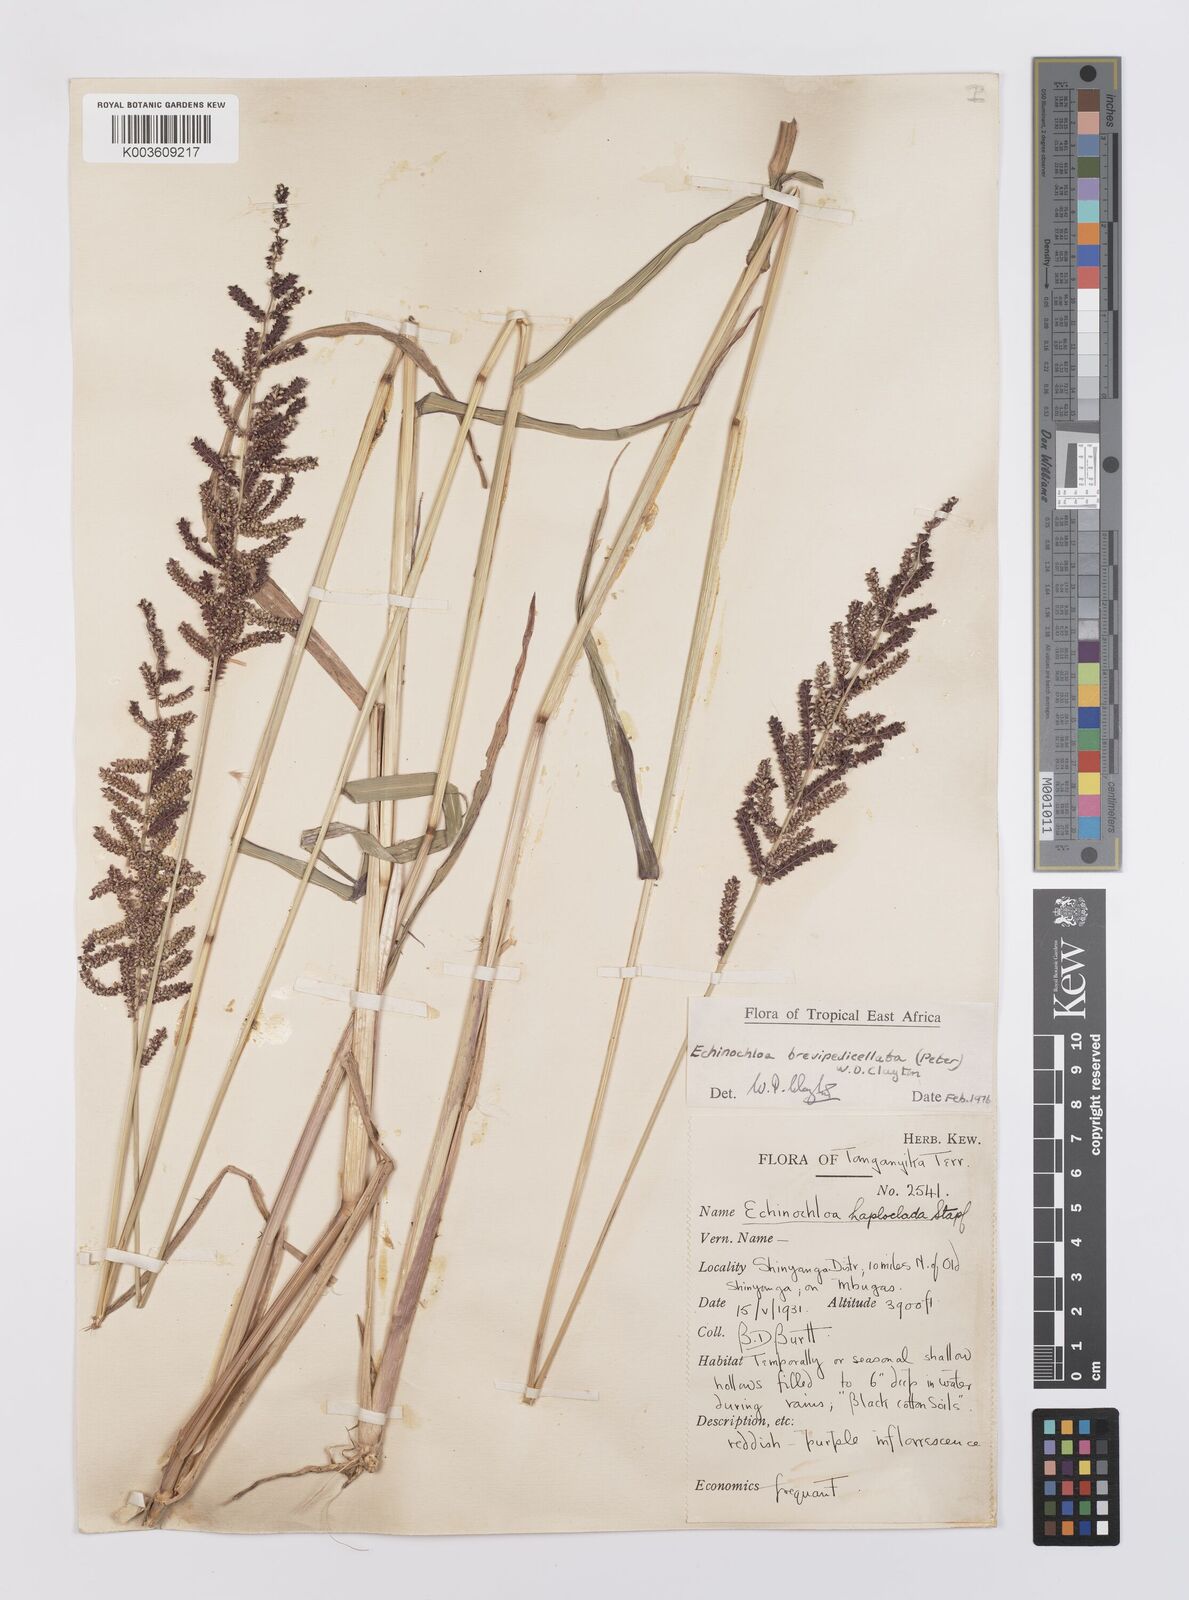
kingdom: Plantae
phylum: Tracheophyta
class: Liliopsida
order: Poales
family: Poaceae
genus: Echinochloa
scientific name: Echinochloa brevipedicellata
